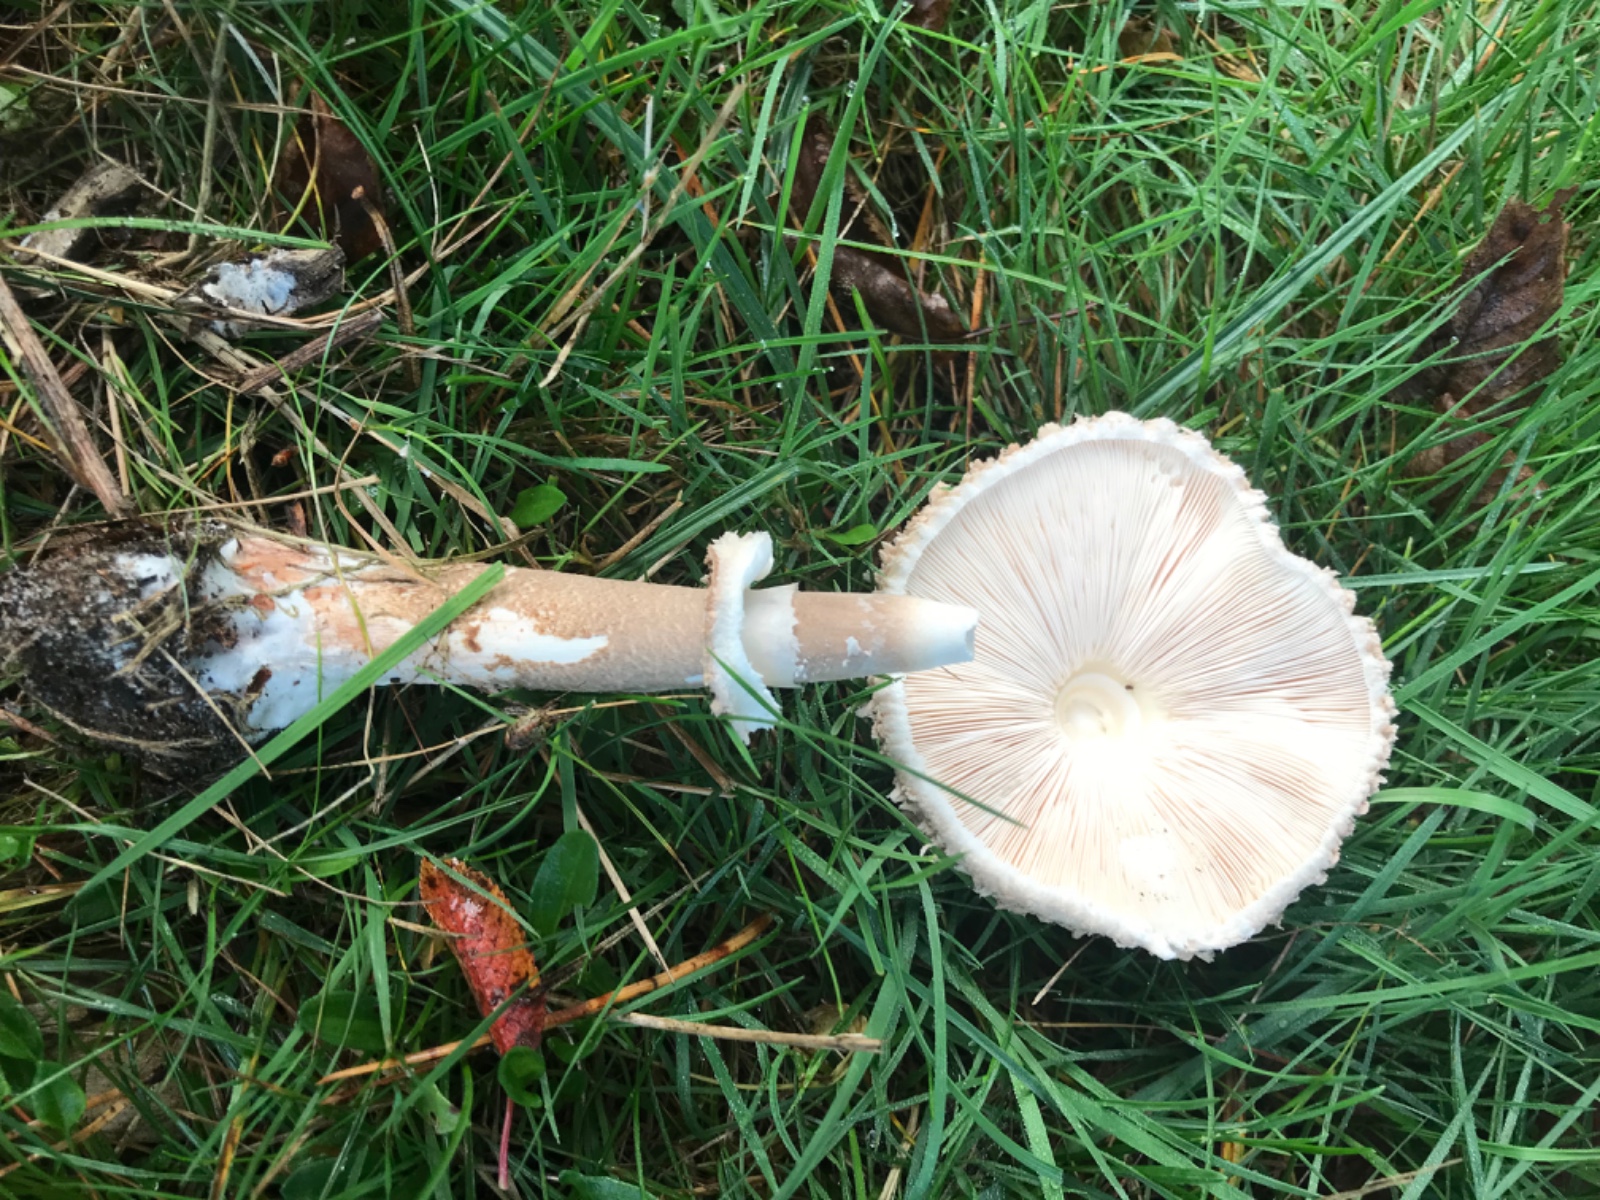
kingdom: Fungi
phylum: Basidiomycota
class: Agaricomycetes
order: Agaricales
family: Agaricaceae
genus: Chlorophyllum
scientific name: Chlorophyllum
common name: rabarberhat
